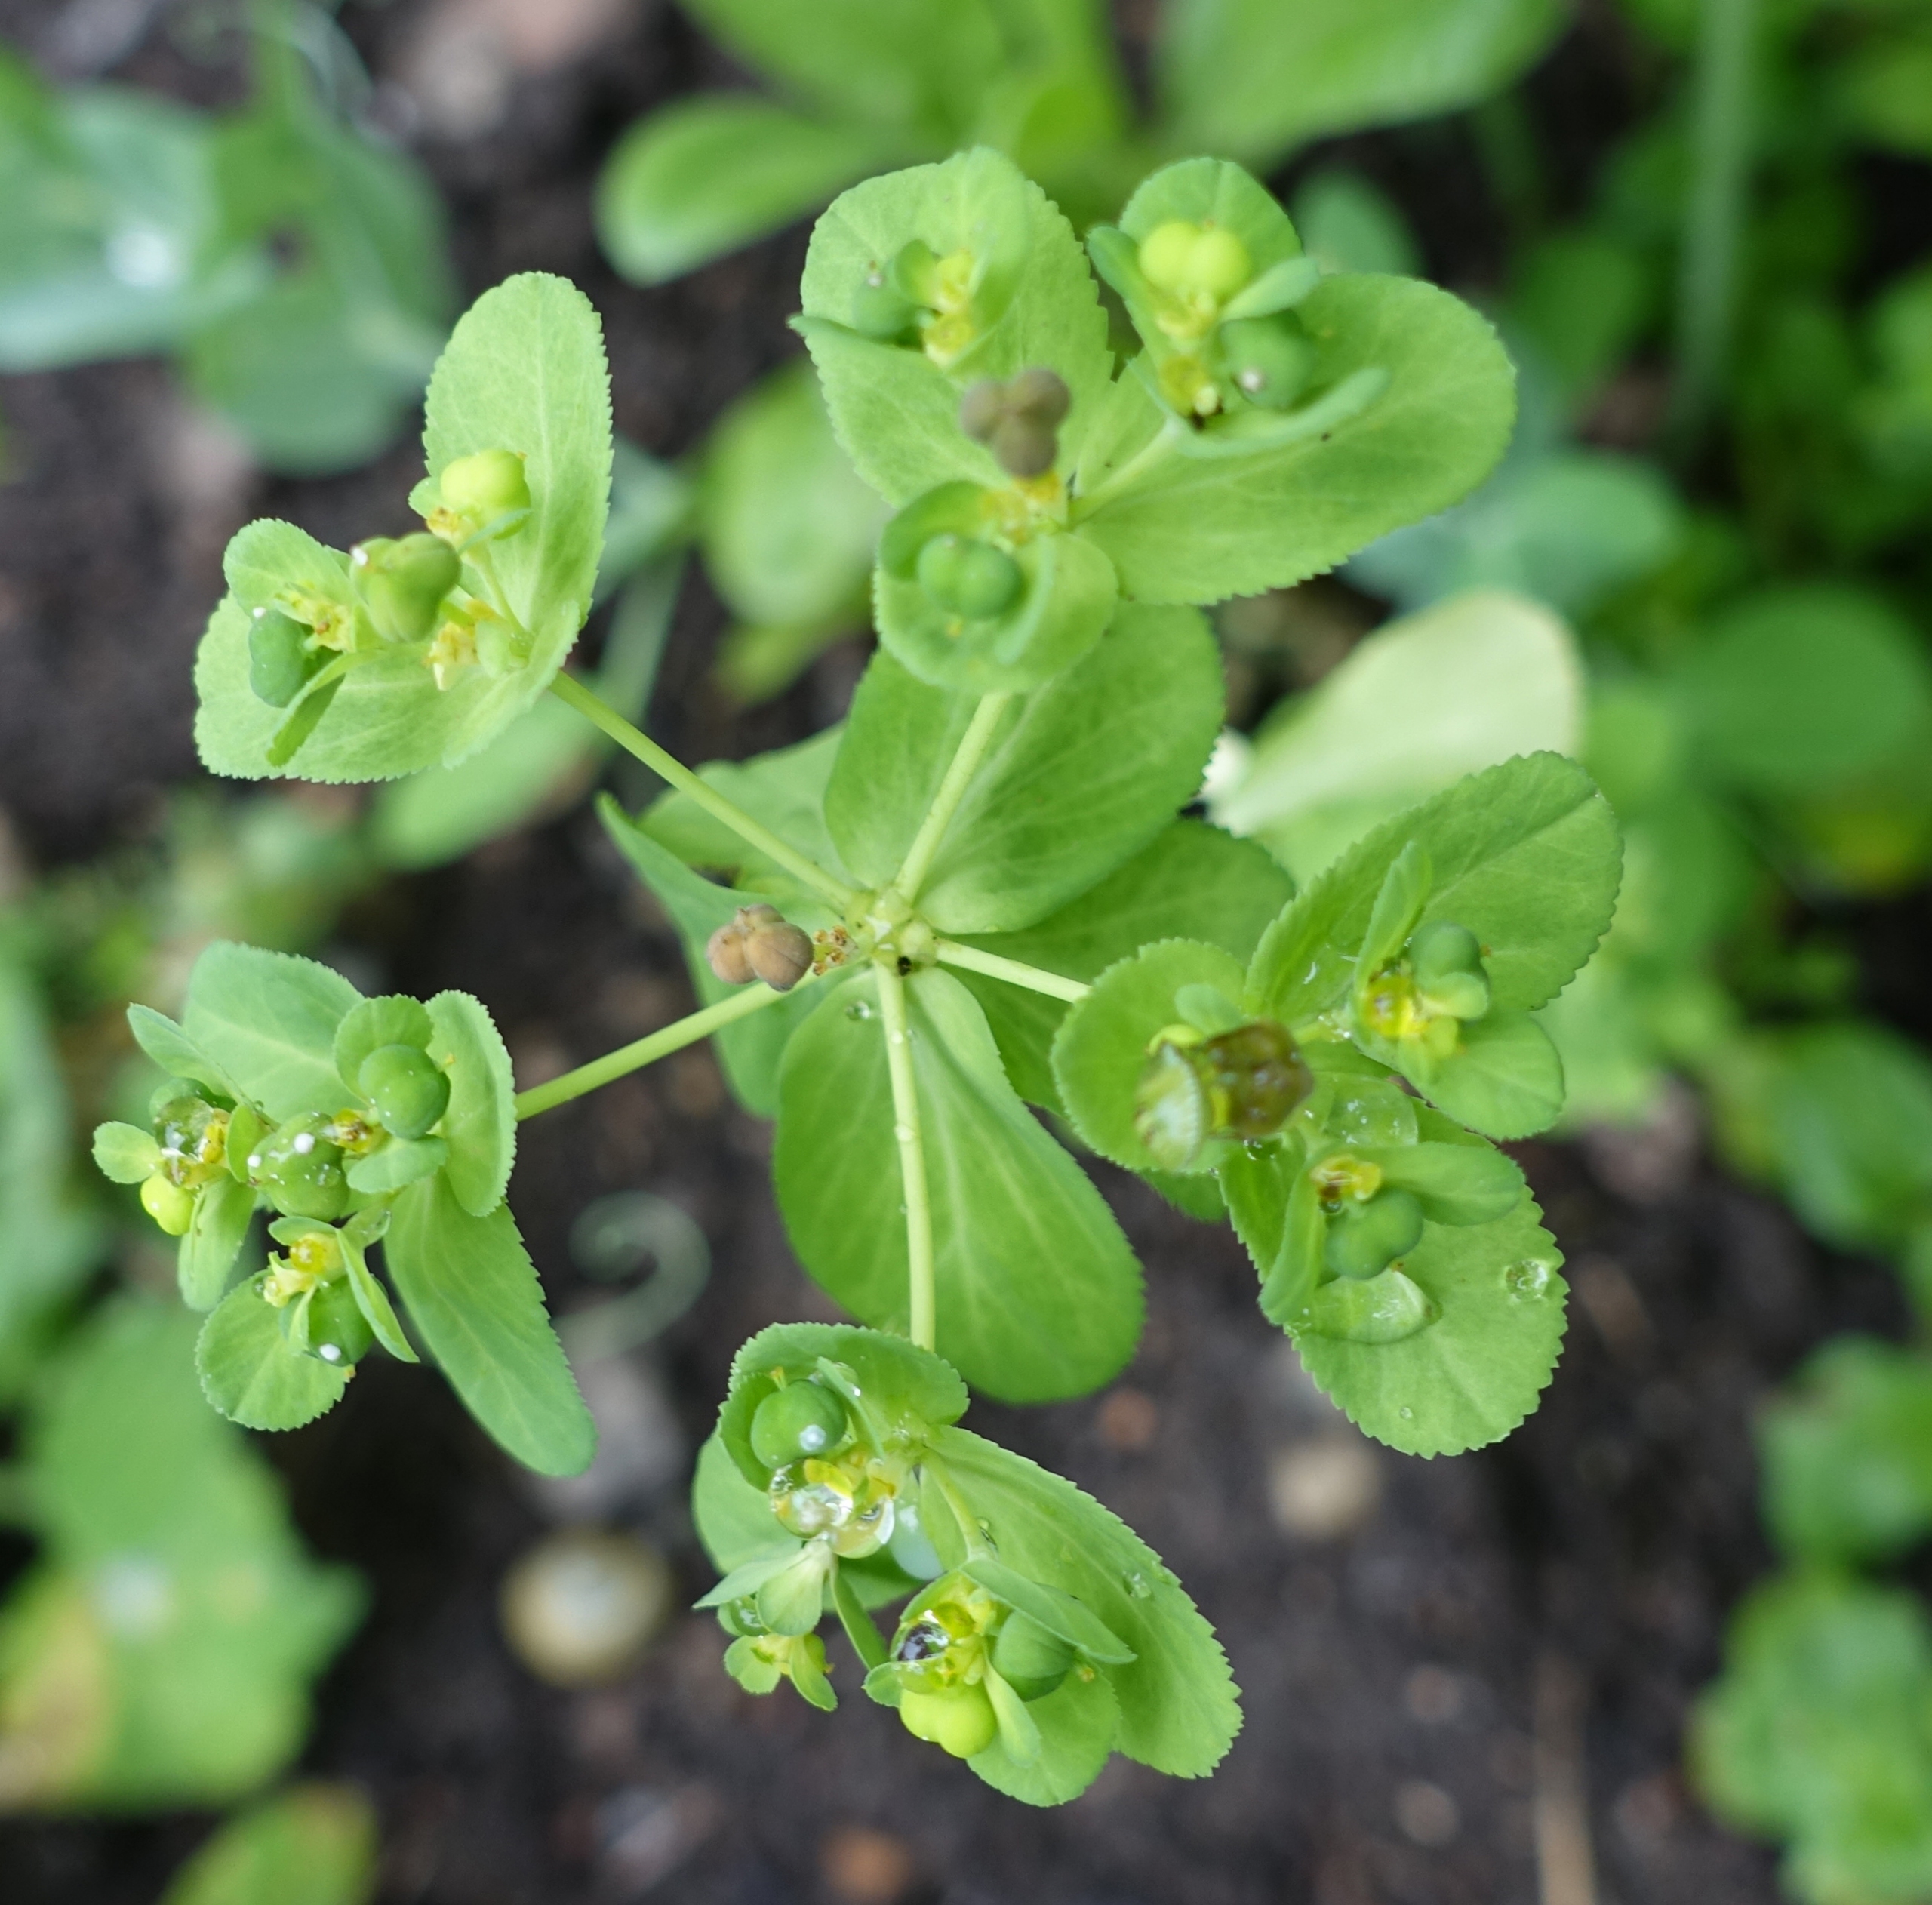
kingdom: Plantae
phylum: Tracheophyta
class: Magnoliopsida
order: Malpighiales
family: Euphorbiaceae
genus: Euphorbia
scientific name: Euphorbia helioscopia
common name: Skærm-vortemælk
